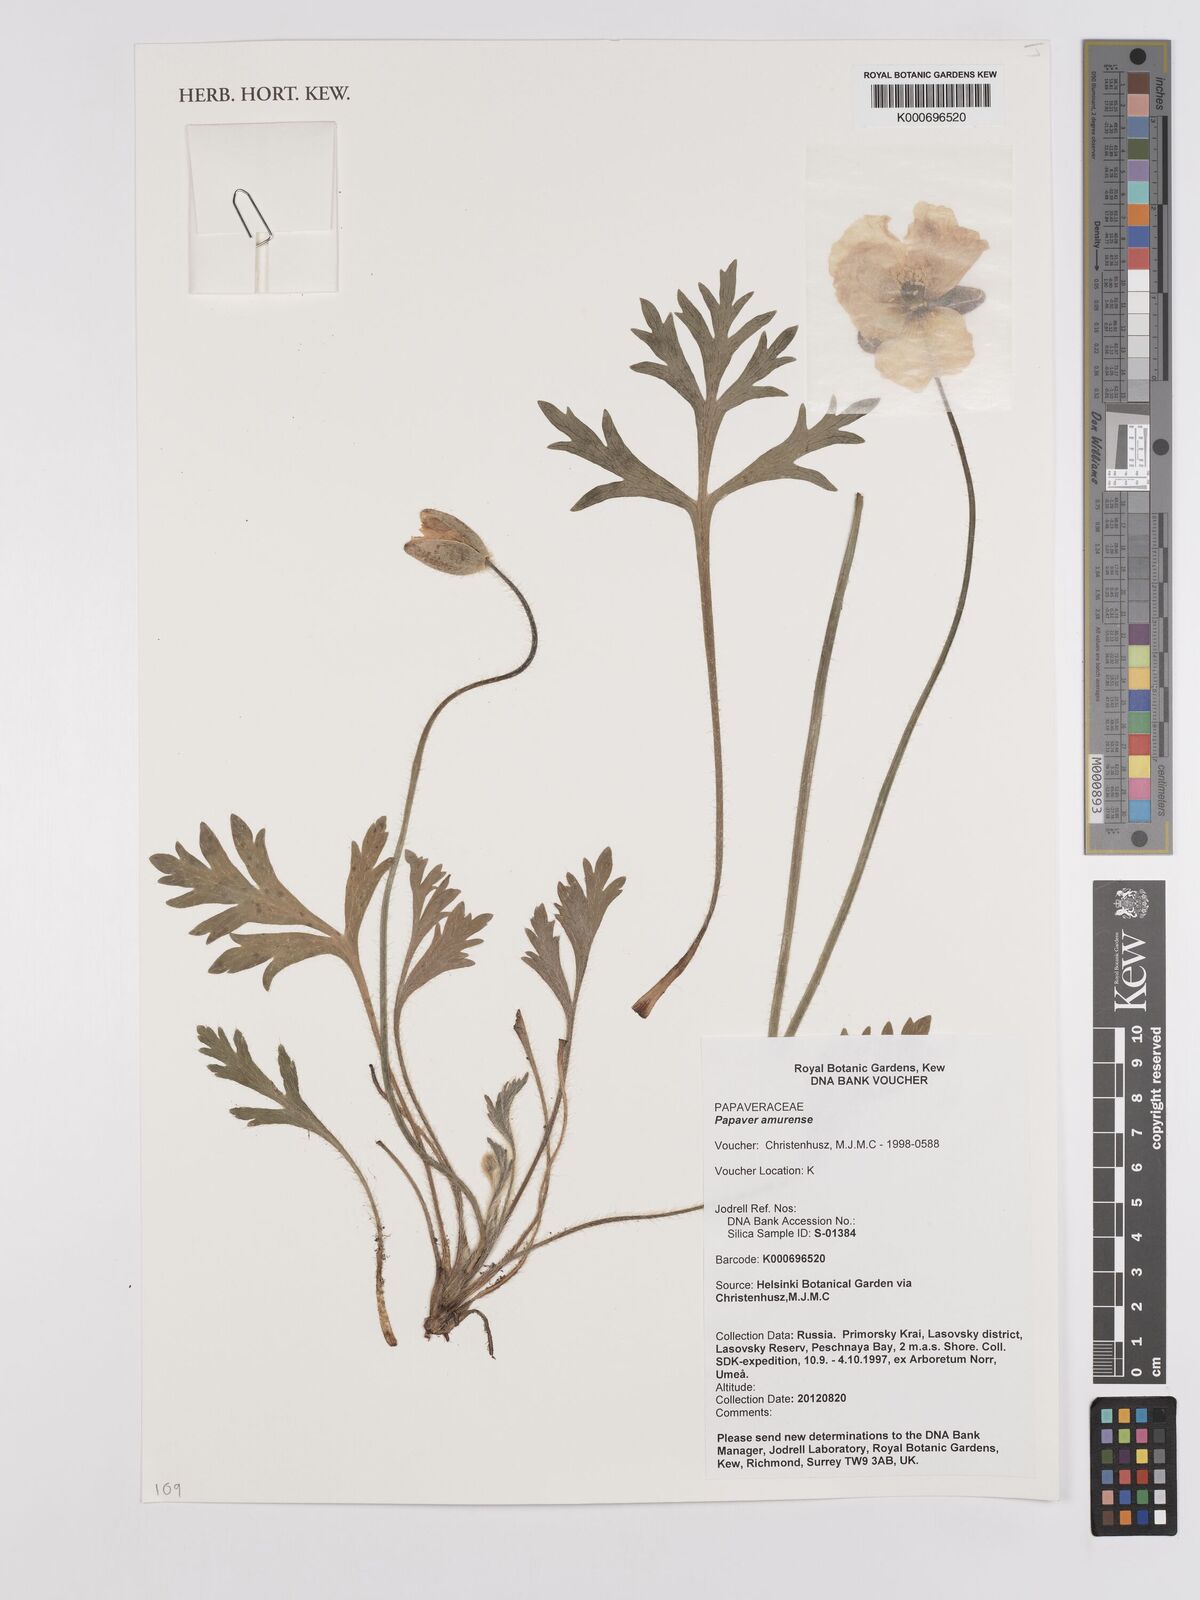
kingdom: Plantae
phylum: Tracheophyta
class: Magnoliopsida
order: Ranunculales
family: Papaveraceae
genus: Papaver
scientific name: Papaver croceum
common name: Siberian poppy
